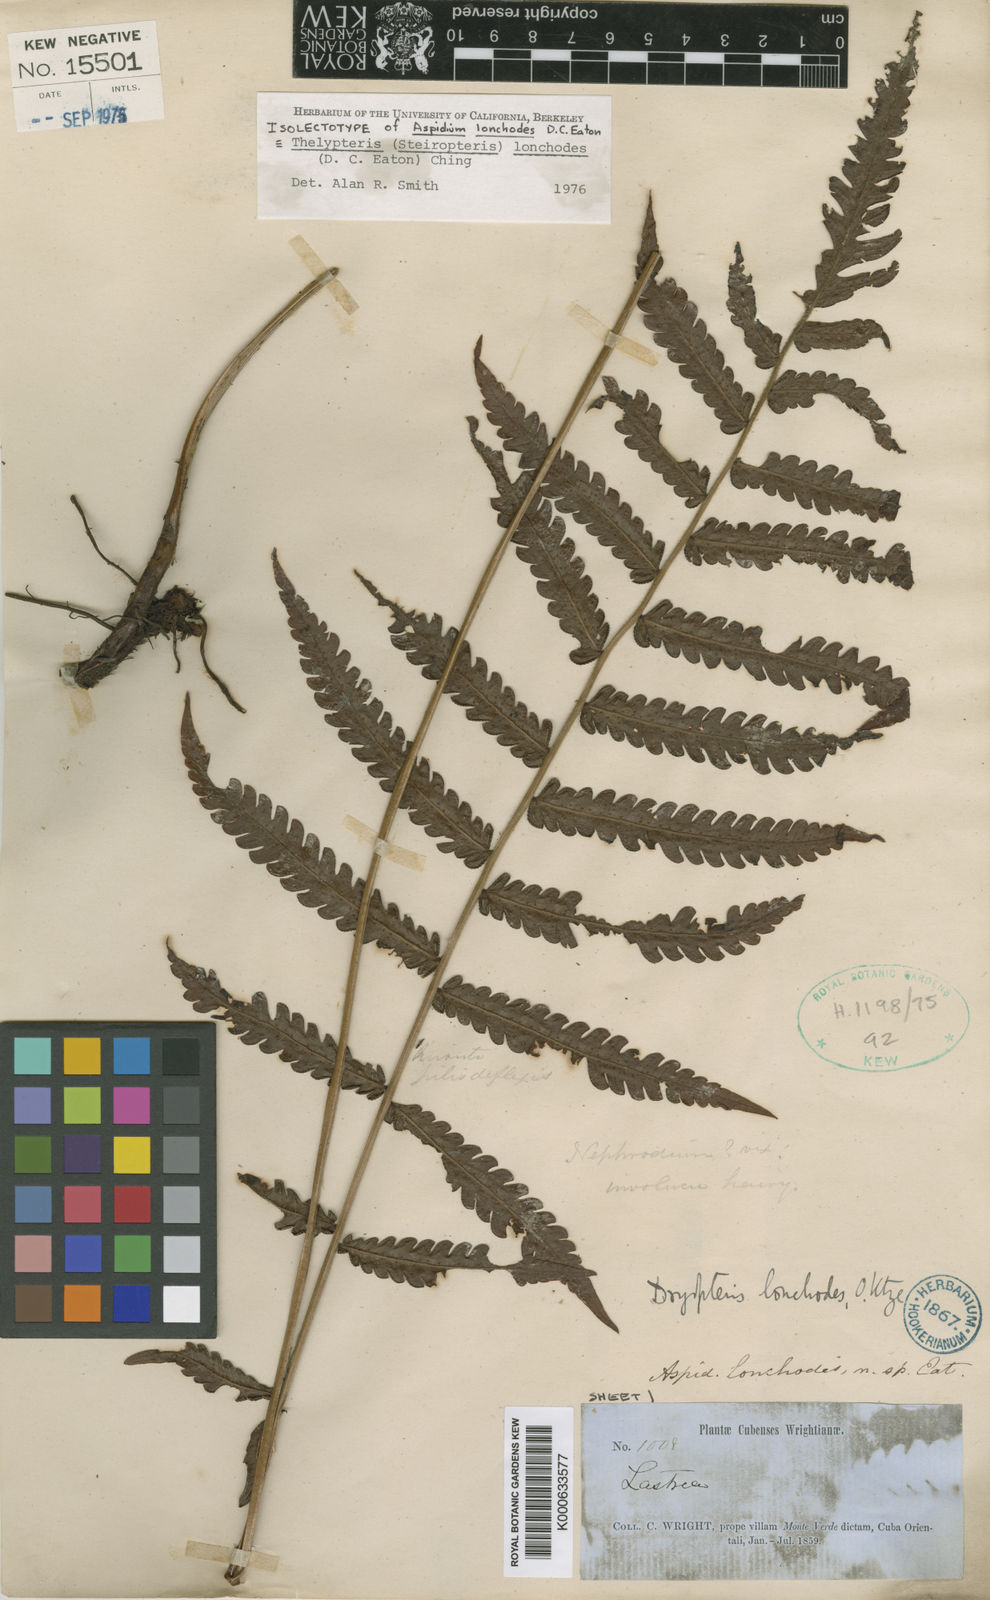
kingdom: Plantae
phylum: Tracheophyta
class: Polypodiopsida
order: Polypodiales
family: Thelypteridaceae
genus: Steiropteris
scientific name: Steiropteris lonchodes
